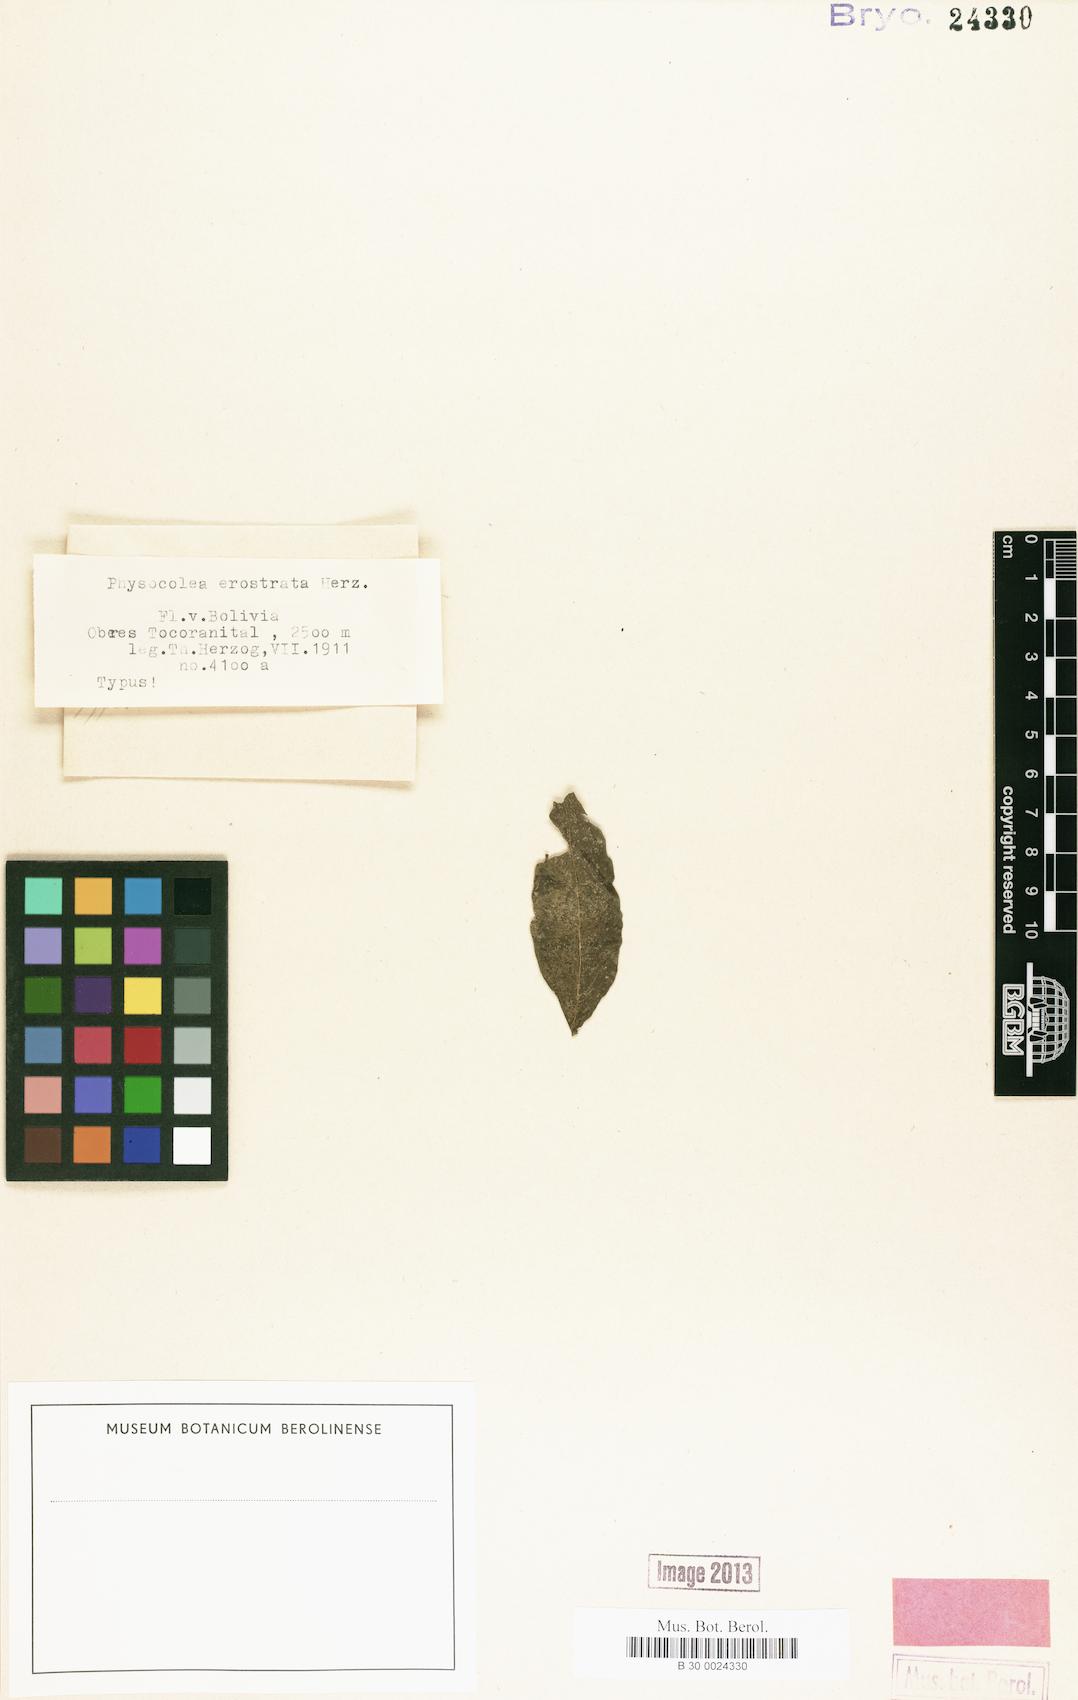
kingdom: Plantae
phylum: Marchantiophyta
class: Jungermanniopsida
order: Porellales
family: Lejeuneaceae
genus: Cololejeunea
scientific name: Cololejeunea erostrata
